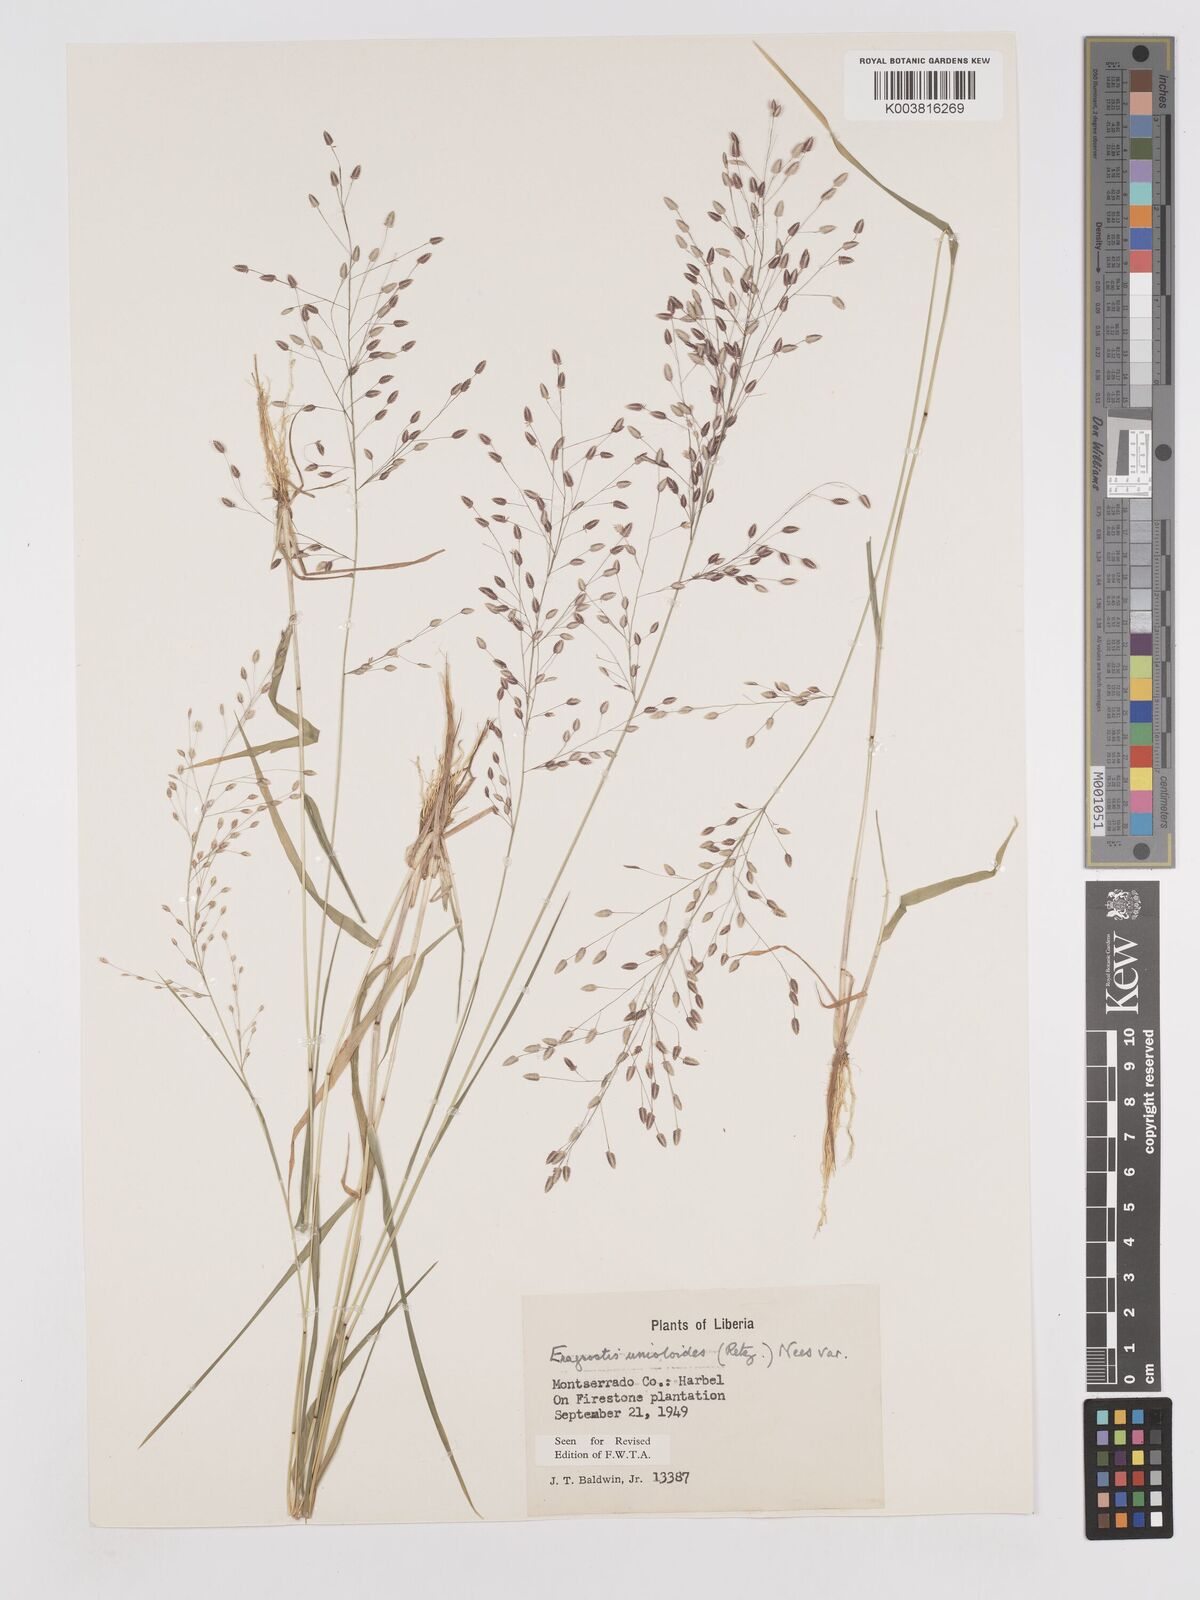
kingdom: Plantae
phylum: Tracheophyta
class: Liliopsida
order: Poales
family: Poaceae
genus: Eragrostis
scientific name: Eragrostis unioloides
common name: Chinese lovegrass
